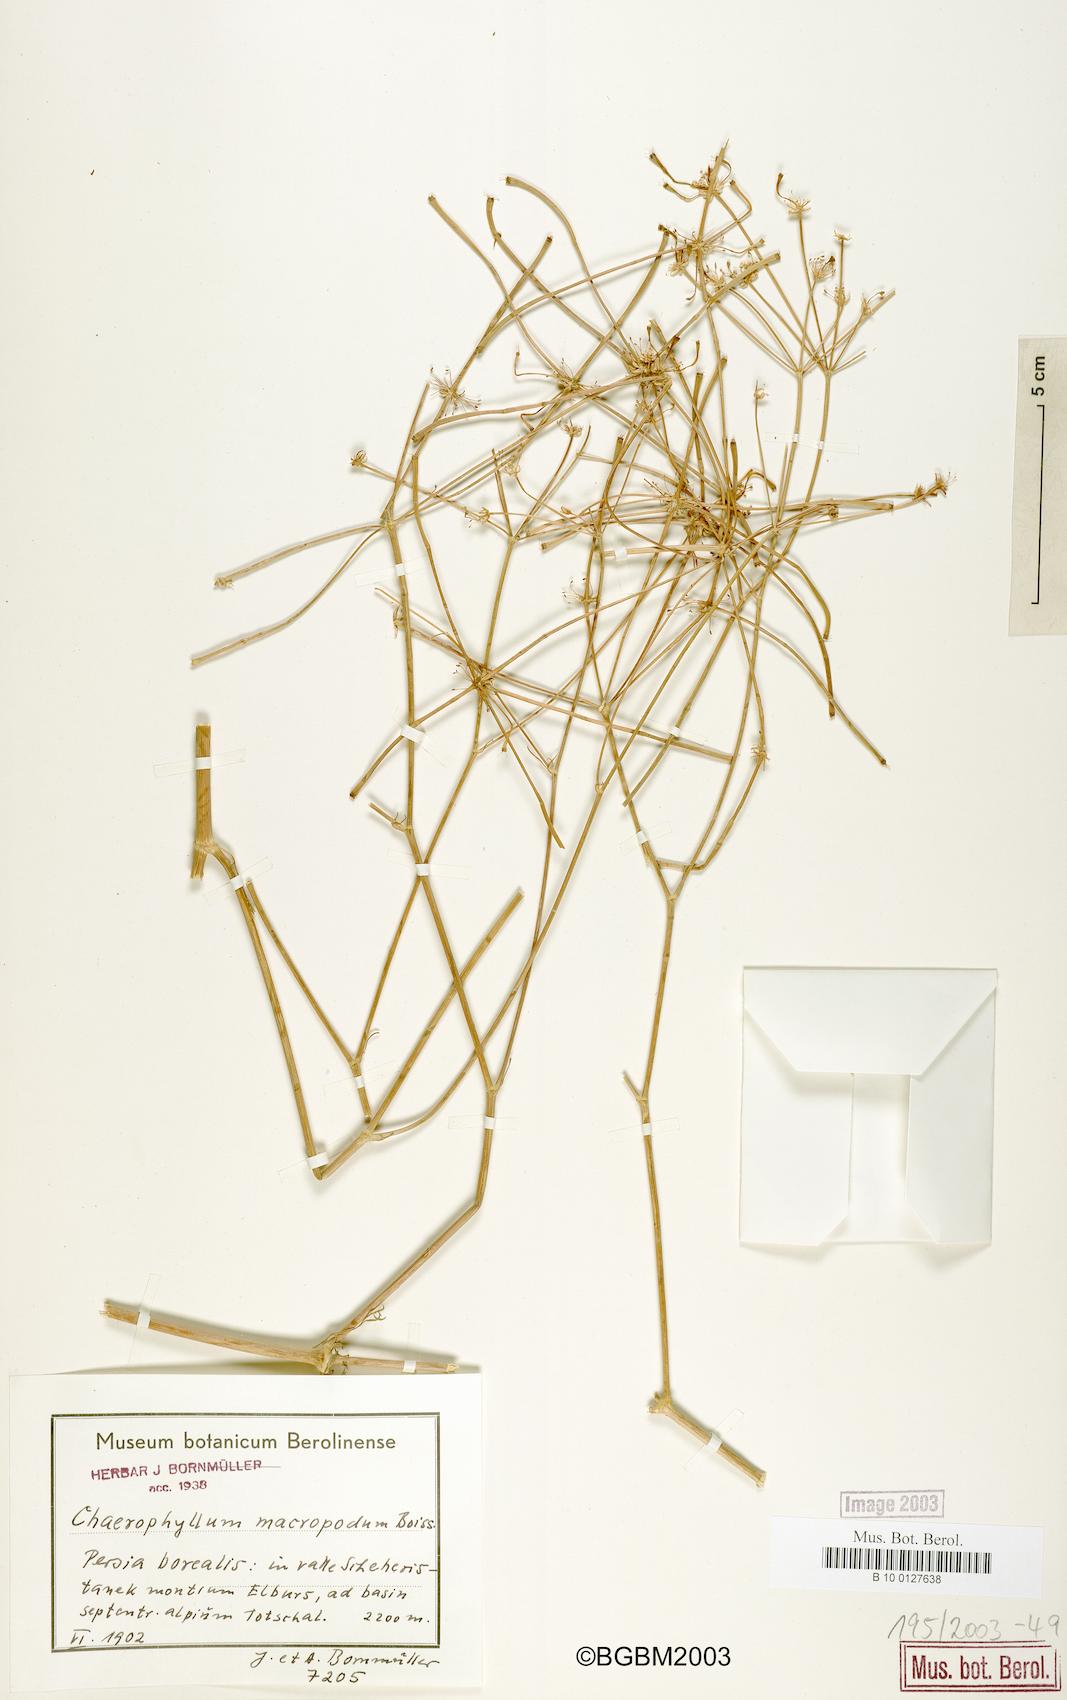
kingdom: Plantae
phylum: Tracheophyta
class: Magnoliopsida
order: Apiales
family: Apiaceae
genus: Chaerophyllum
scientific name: Chaerophyllum macropodum
